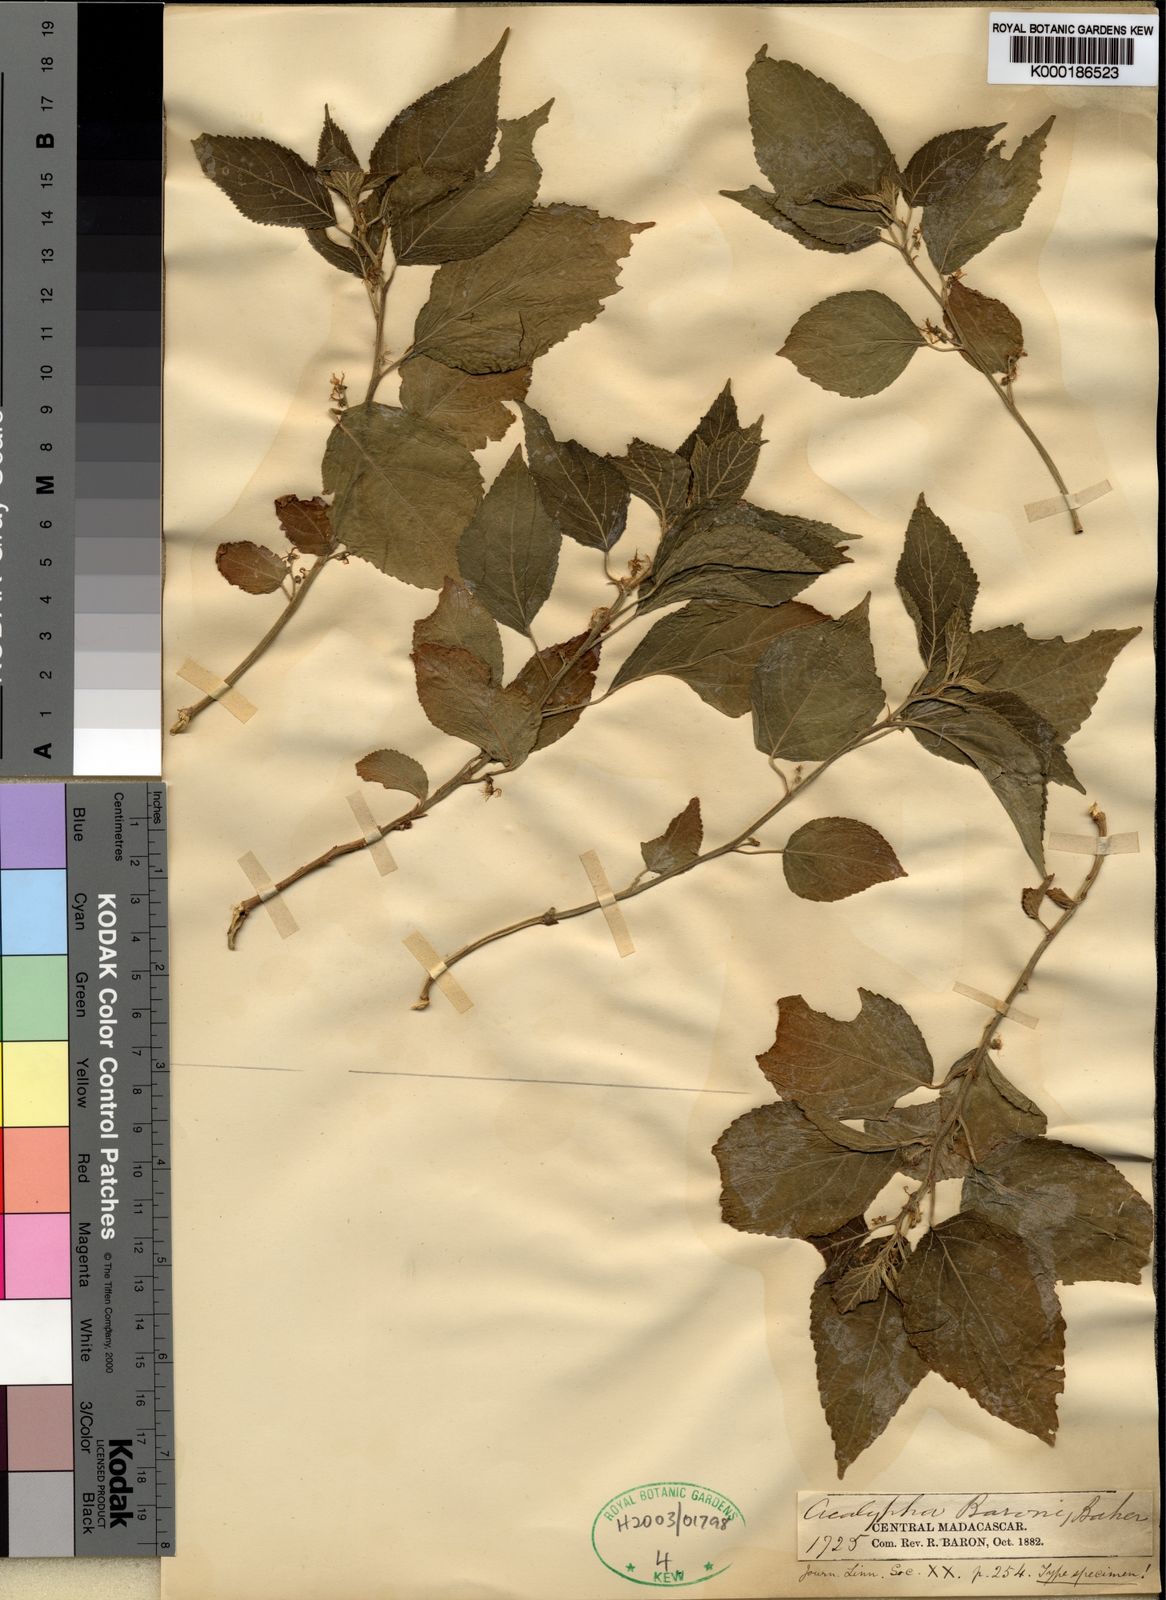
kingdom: Plantae
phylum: Tracheophyta
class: Magnoliopsida
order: Malpighiales
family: Euphorbiaceae
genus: Acalypha
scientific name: Acalypha emirnensis
